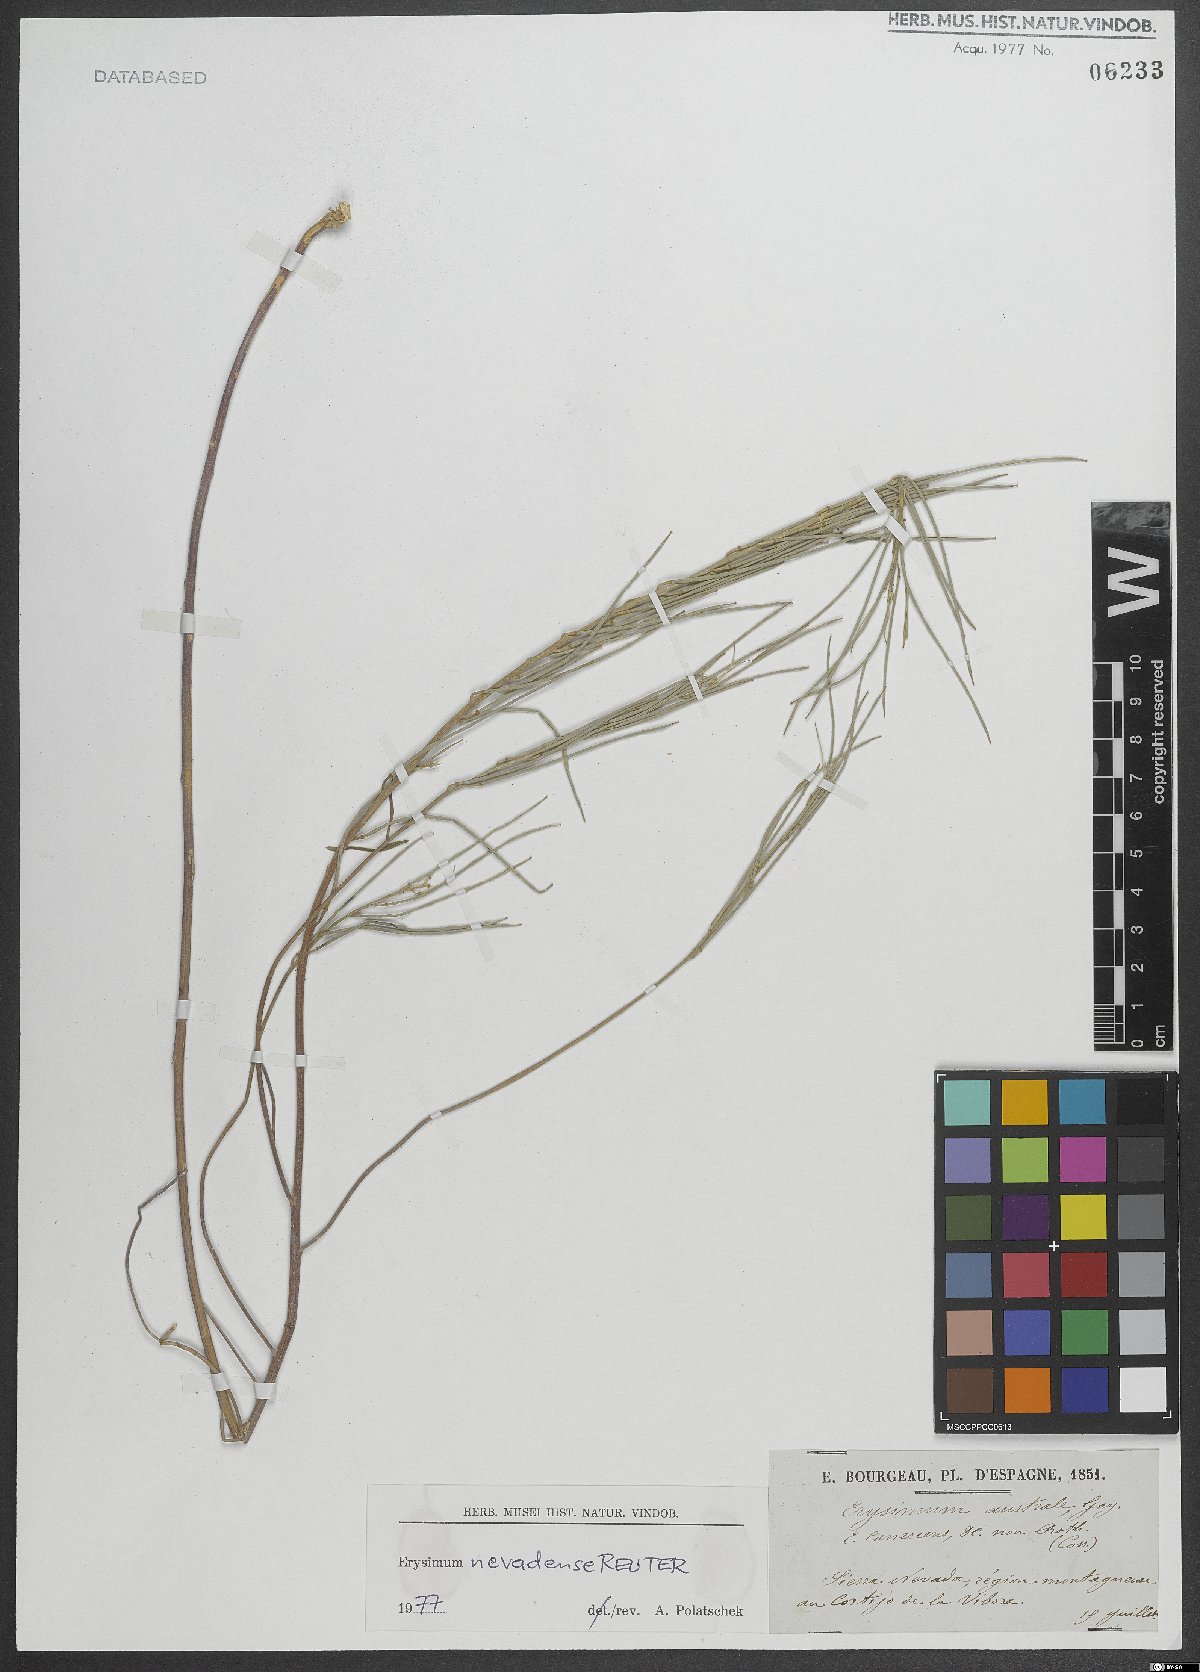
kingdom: Plantae
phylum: Tracheophyta
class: Magnoliopsida
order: Brassicales
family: Brassicaceae
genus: Erysimum
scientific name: Erysimum nevadense
